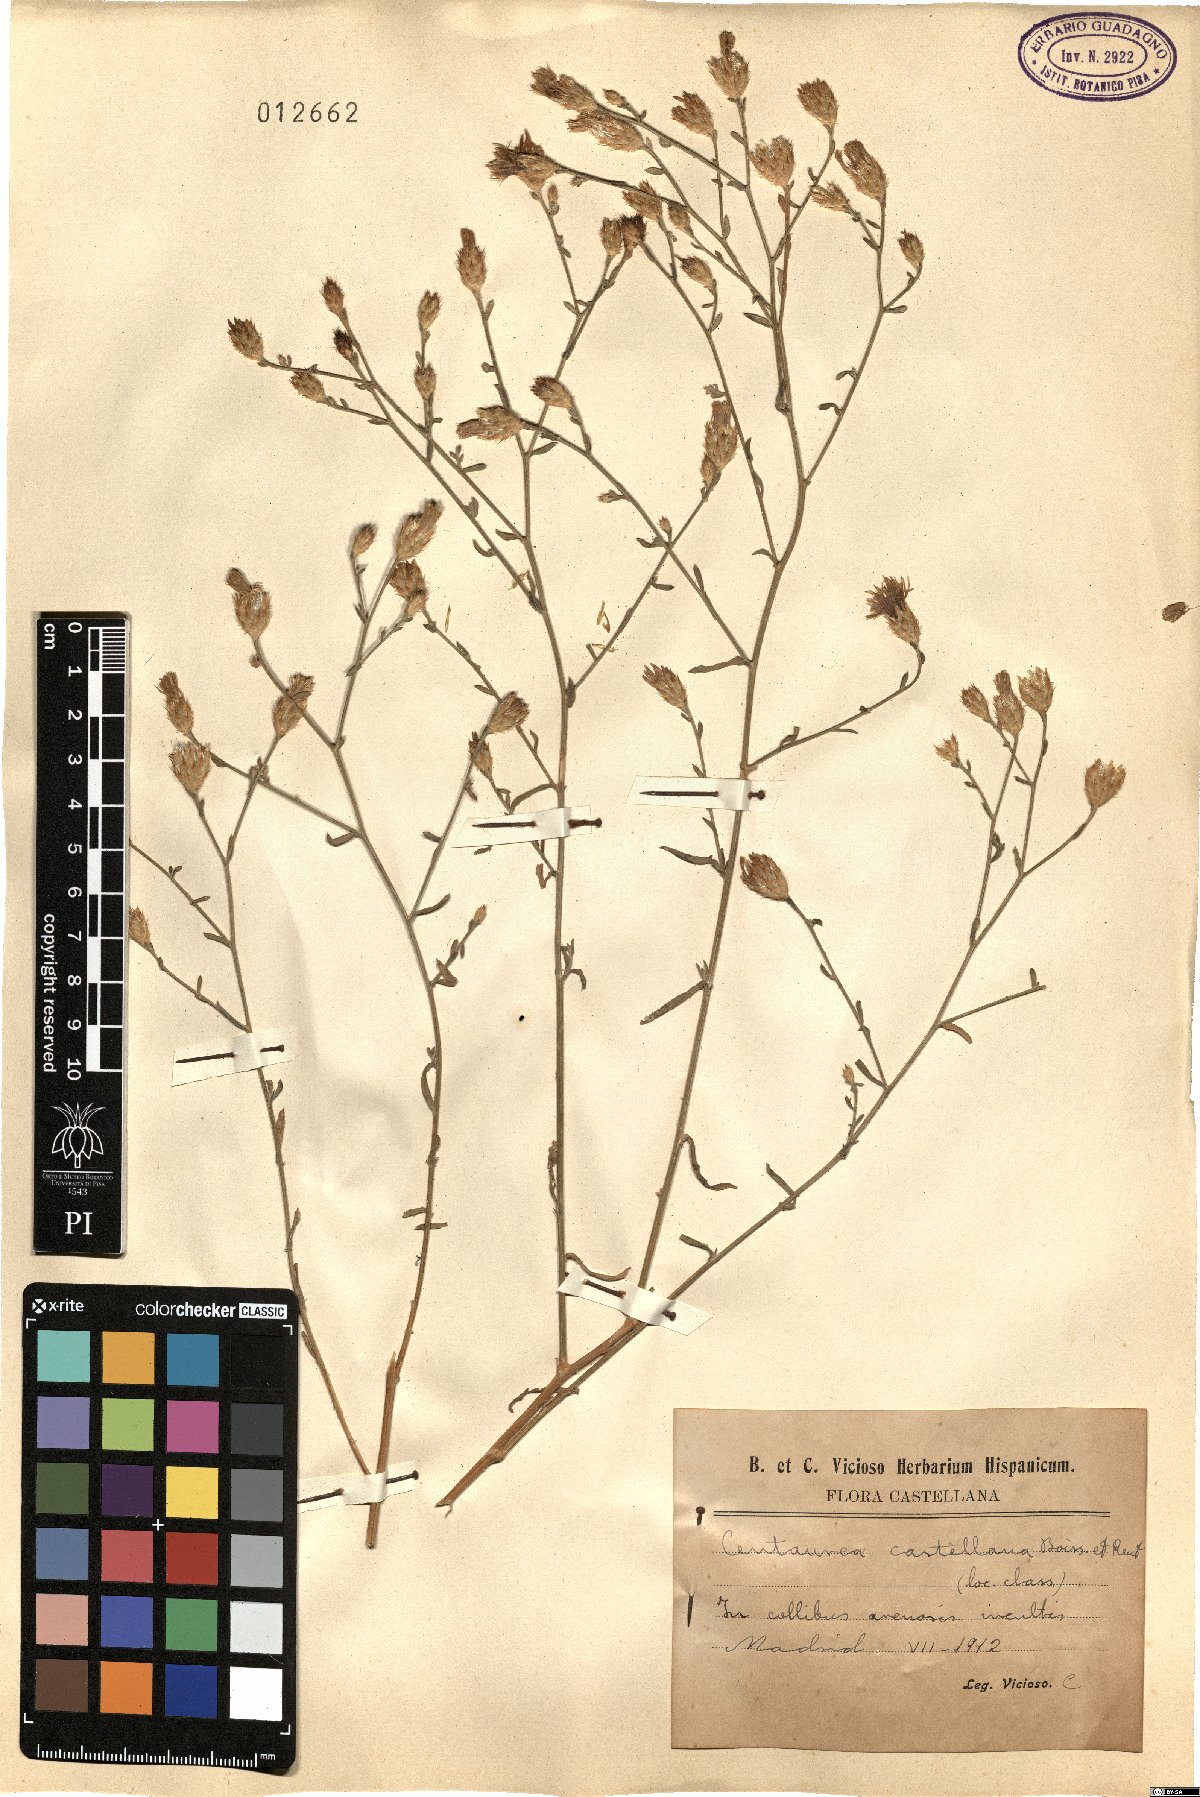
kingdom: Plantae
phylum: Tracheophyta
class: Magnoliopsida
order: Asterales
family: Asteraceae
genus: Centaurea
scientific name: Centaurea aristata
